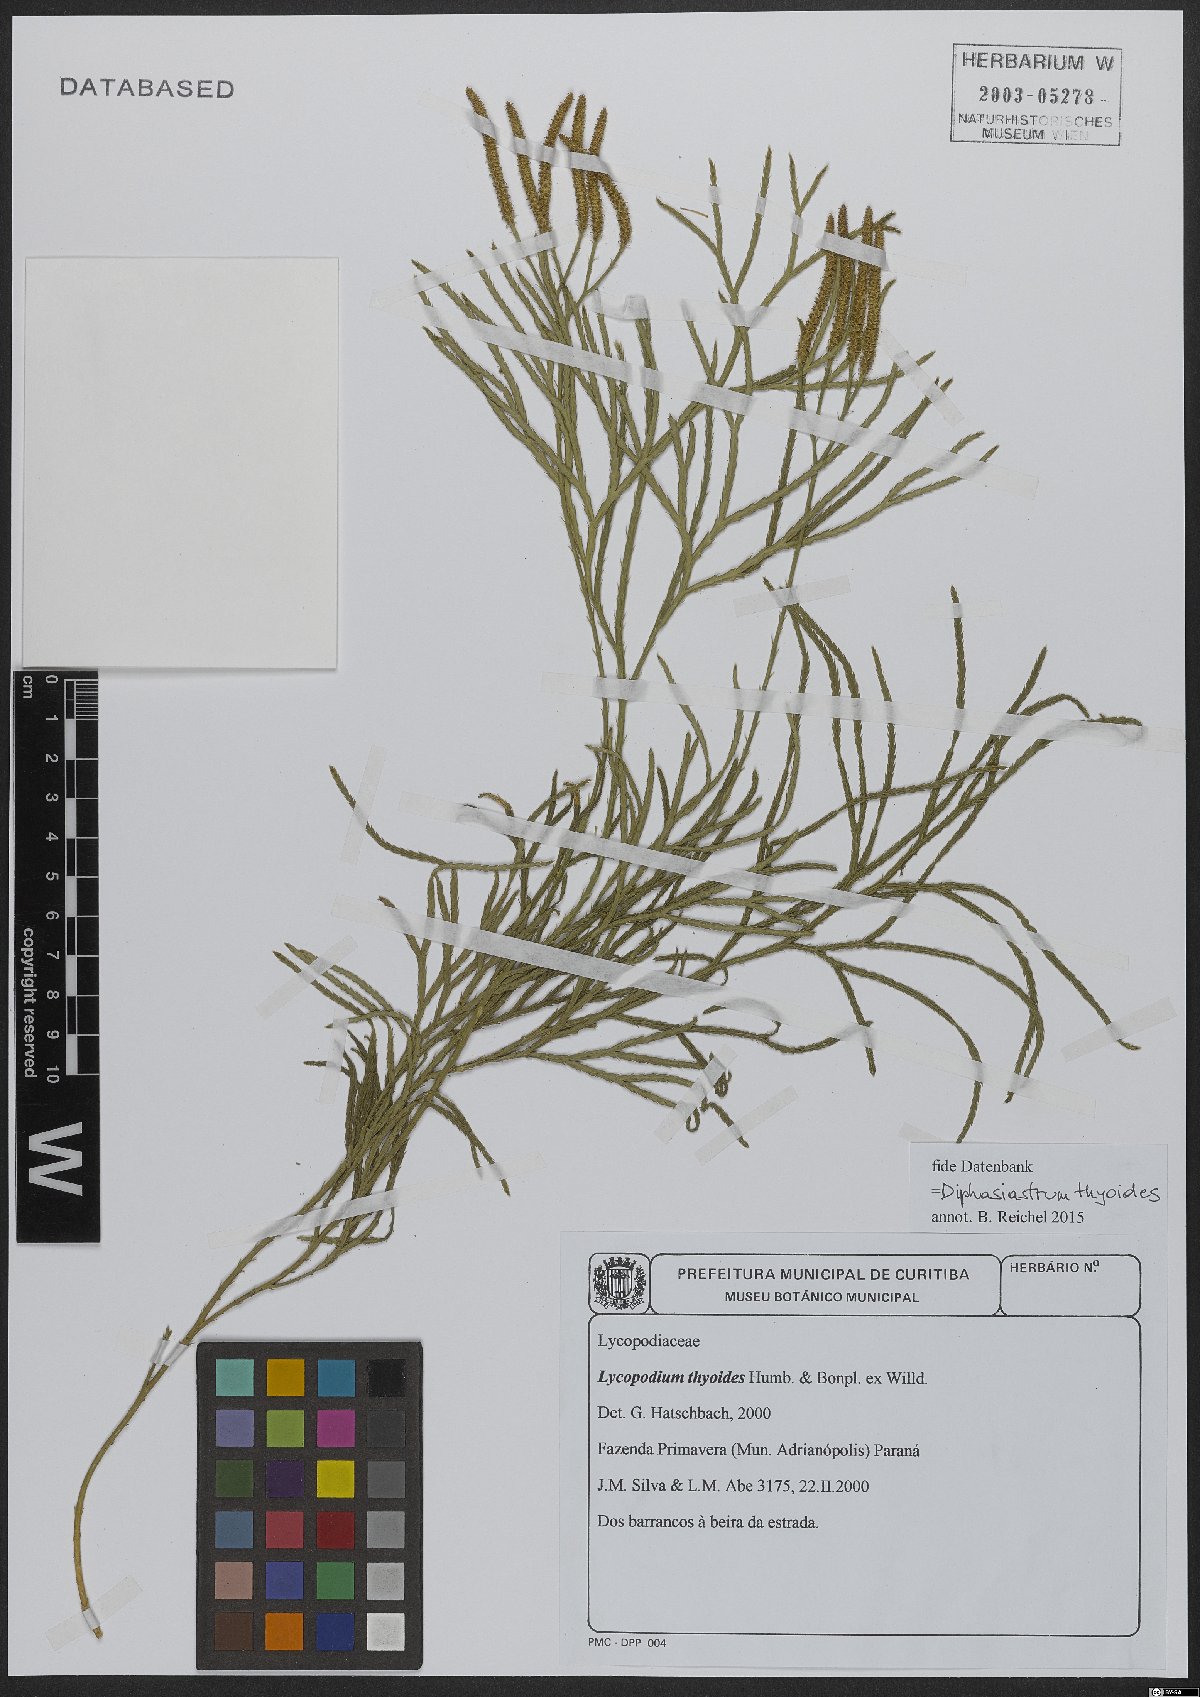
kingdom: Plantae
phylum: Tracheophyta
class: Lycopodiopsida
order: Lycopodiales
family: Lycopodiaceae
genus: Diphasiastrum
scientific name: Diphasiastrum thyoides
